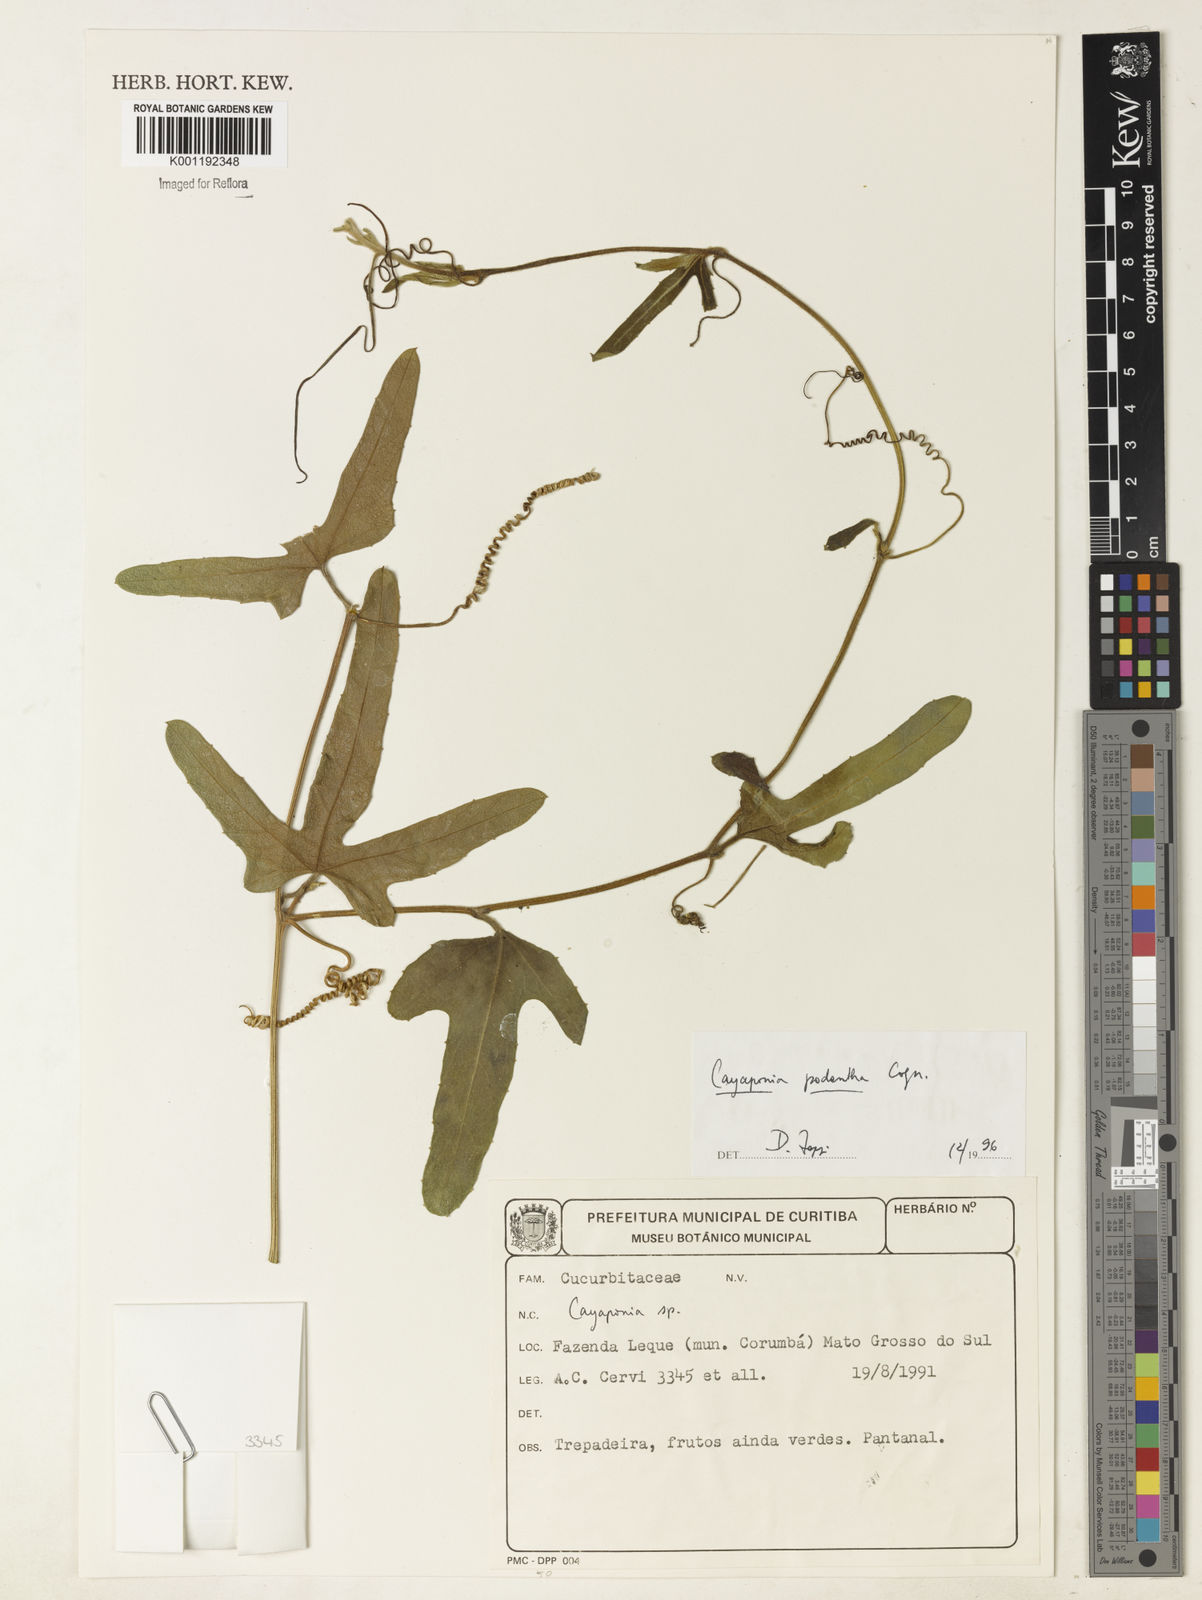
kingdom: Plantae
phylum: Tracheophyta
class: Magnoliopsida
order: Cucurbitales
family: Cucurbitaceae
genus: Cayaponia
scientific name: Cayaponia podantha
